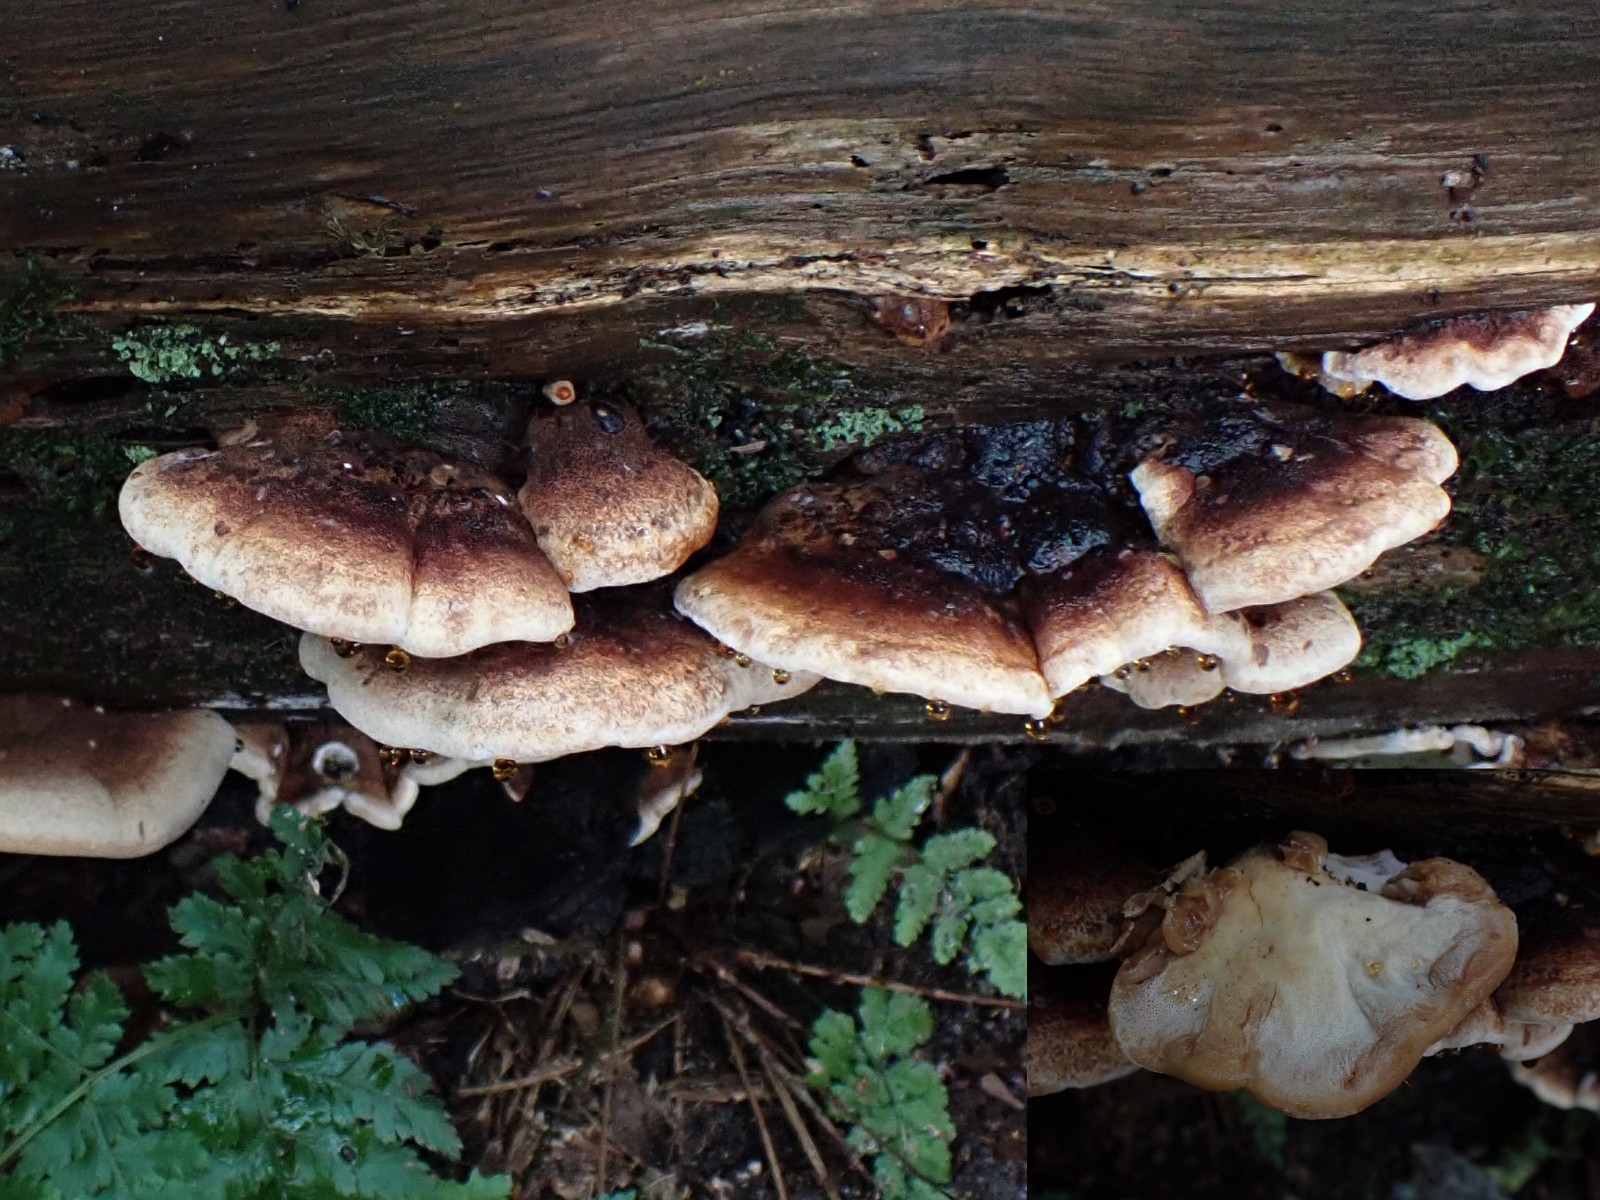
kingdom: Fungi
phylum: Basidiomycota
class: Agaricomycetes
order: Polyporales
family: Ischnodermataceae
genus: Ischnoderma
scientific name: Ischnoderma benzoinum
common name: gran-tjæreporesvamp
